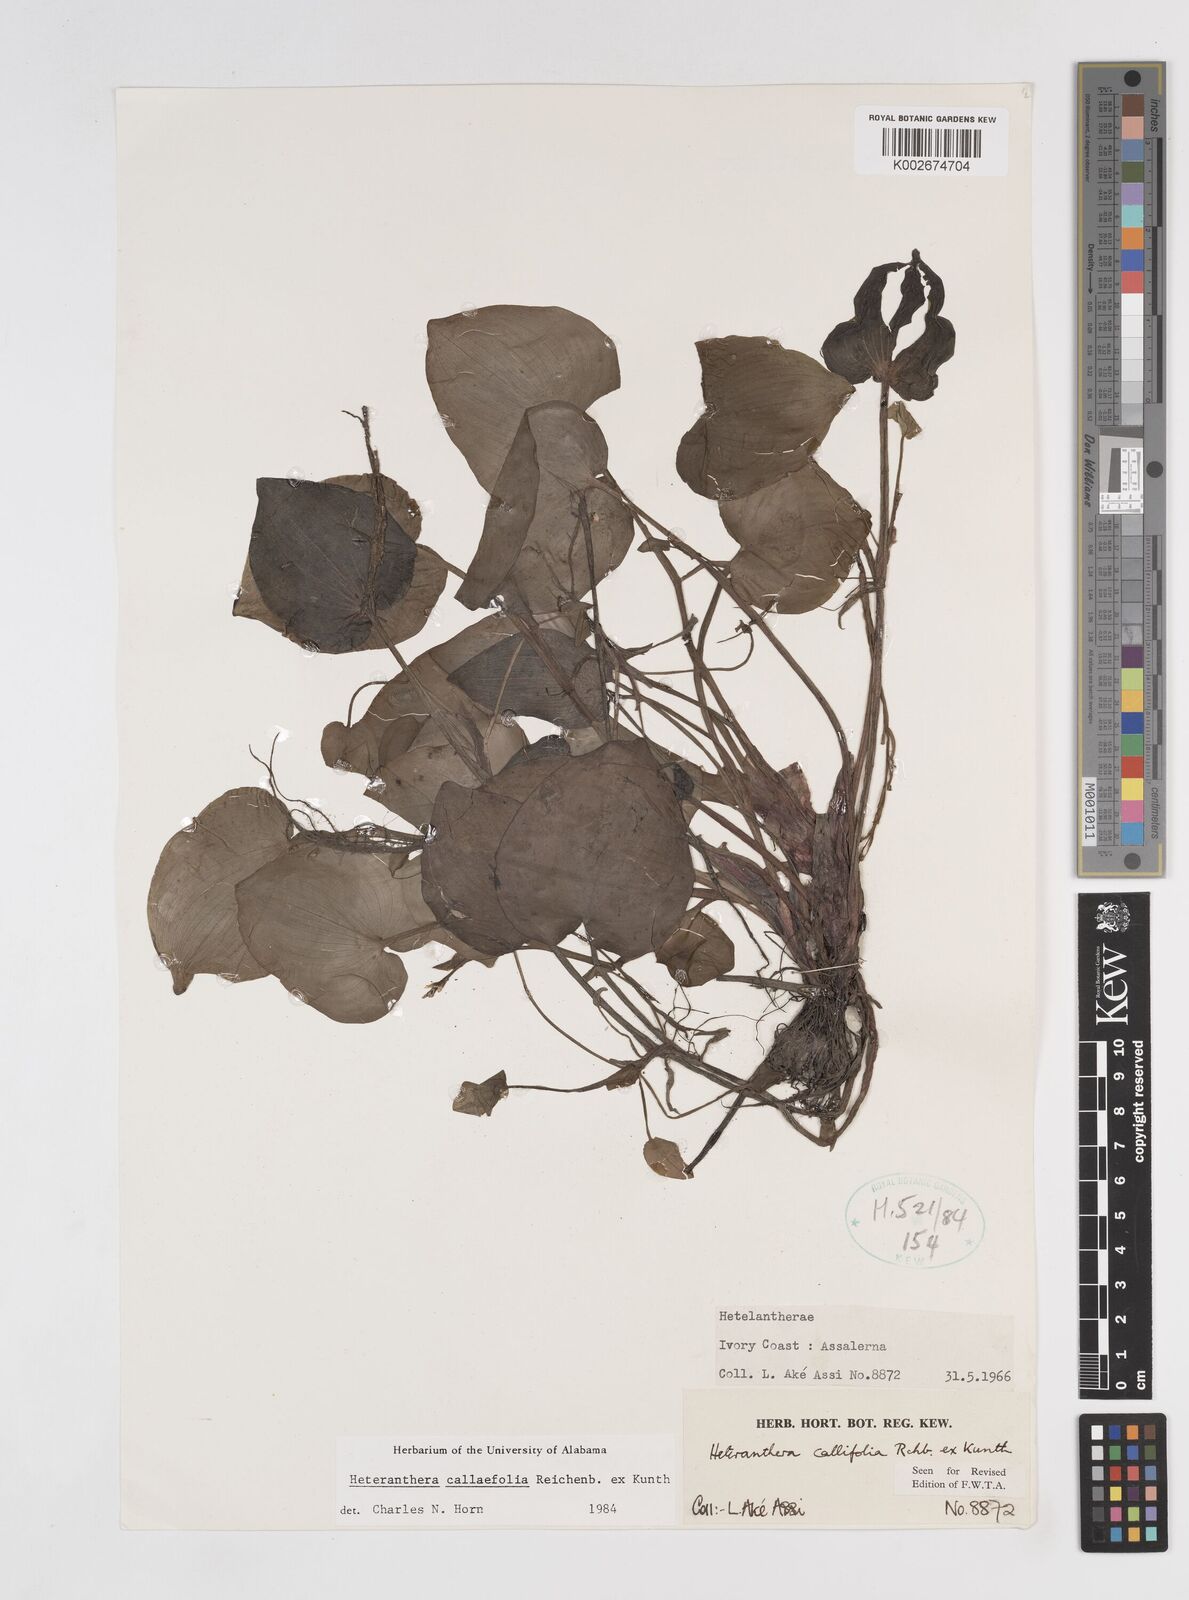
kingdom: Plantae
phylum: Tracheophyta
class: Liliopsida
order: Commelinales
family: Pontederiaceae
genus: Heteranthera
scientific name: Heteranthera callifolia
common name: Mud plantain
